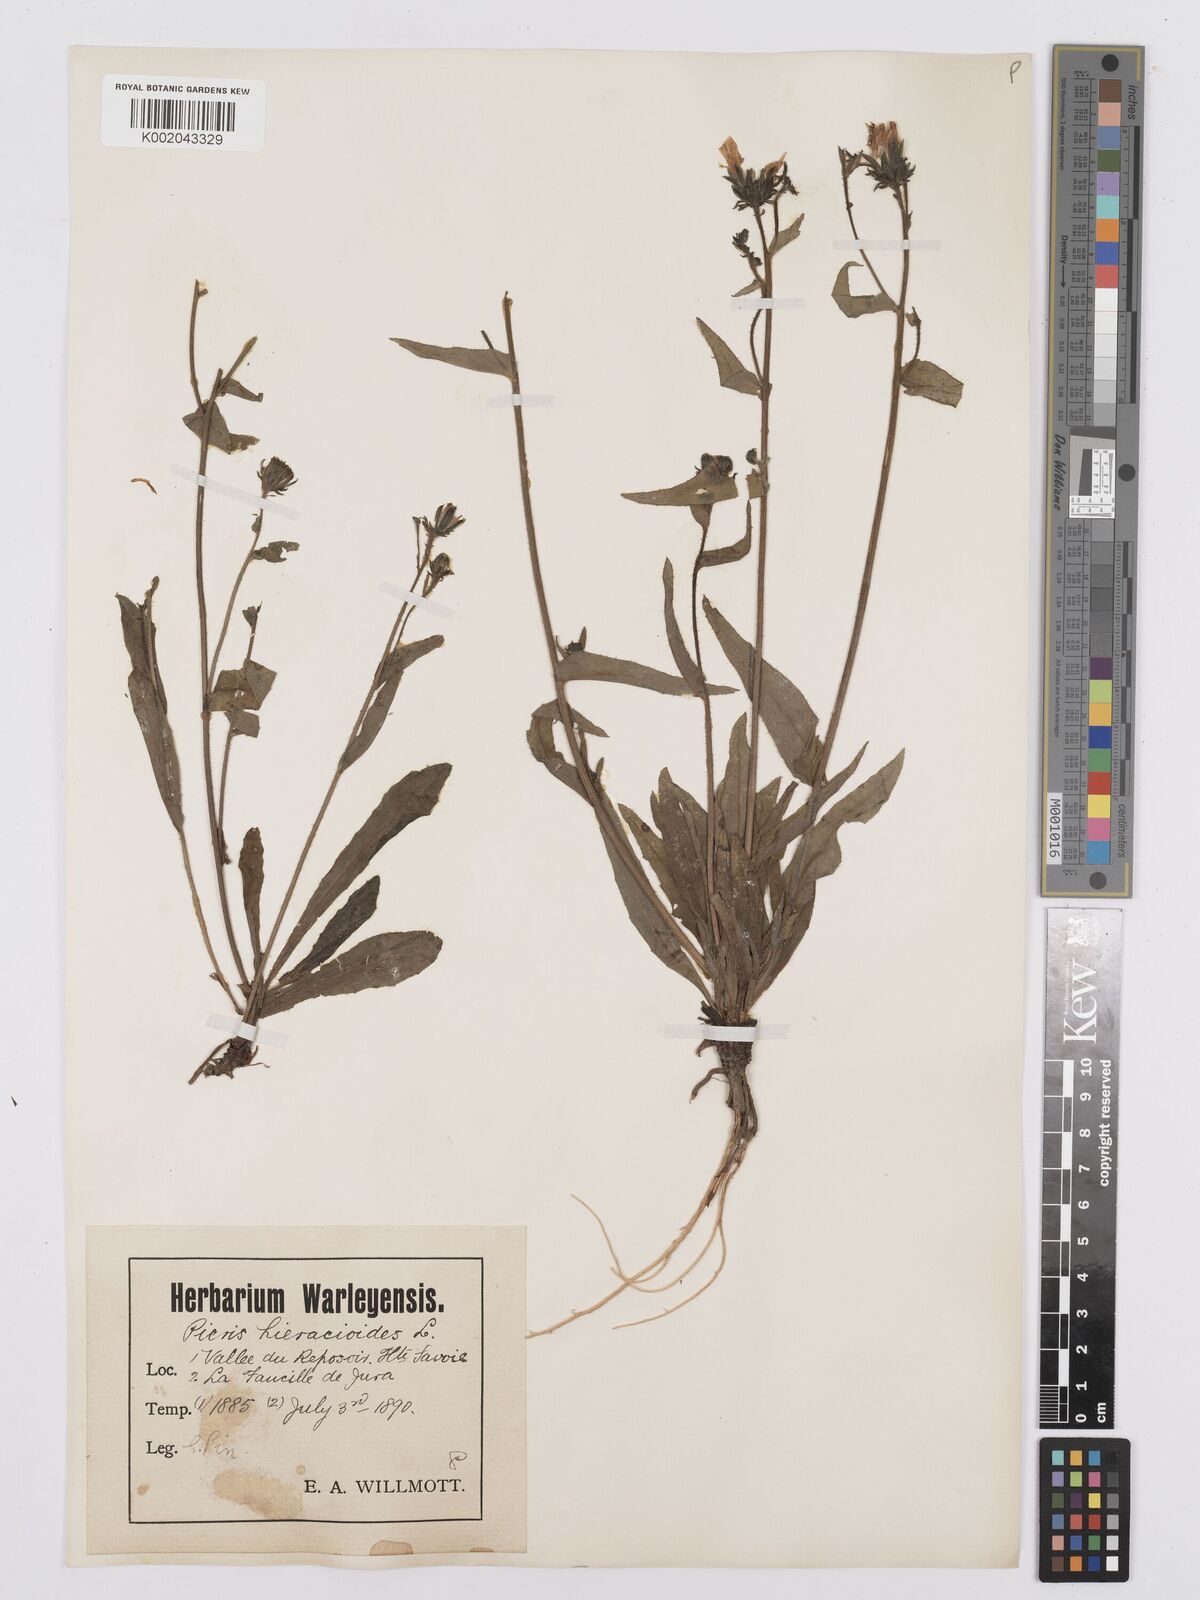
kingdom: Plantae
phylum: Tracheophyta
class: Magnoliopsida
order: Asterales
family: Asteraceae
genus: Picris
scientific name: Picris hieracioides
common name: Hawkweed oxtongue
